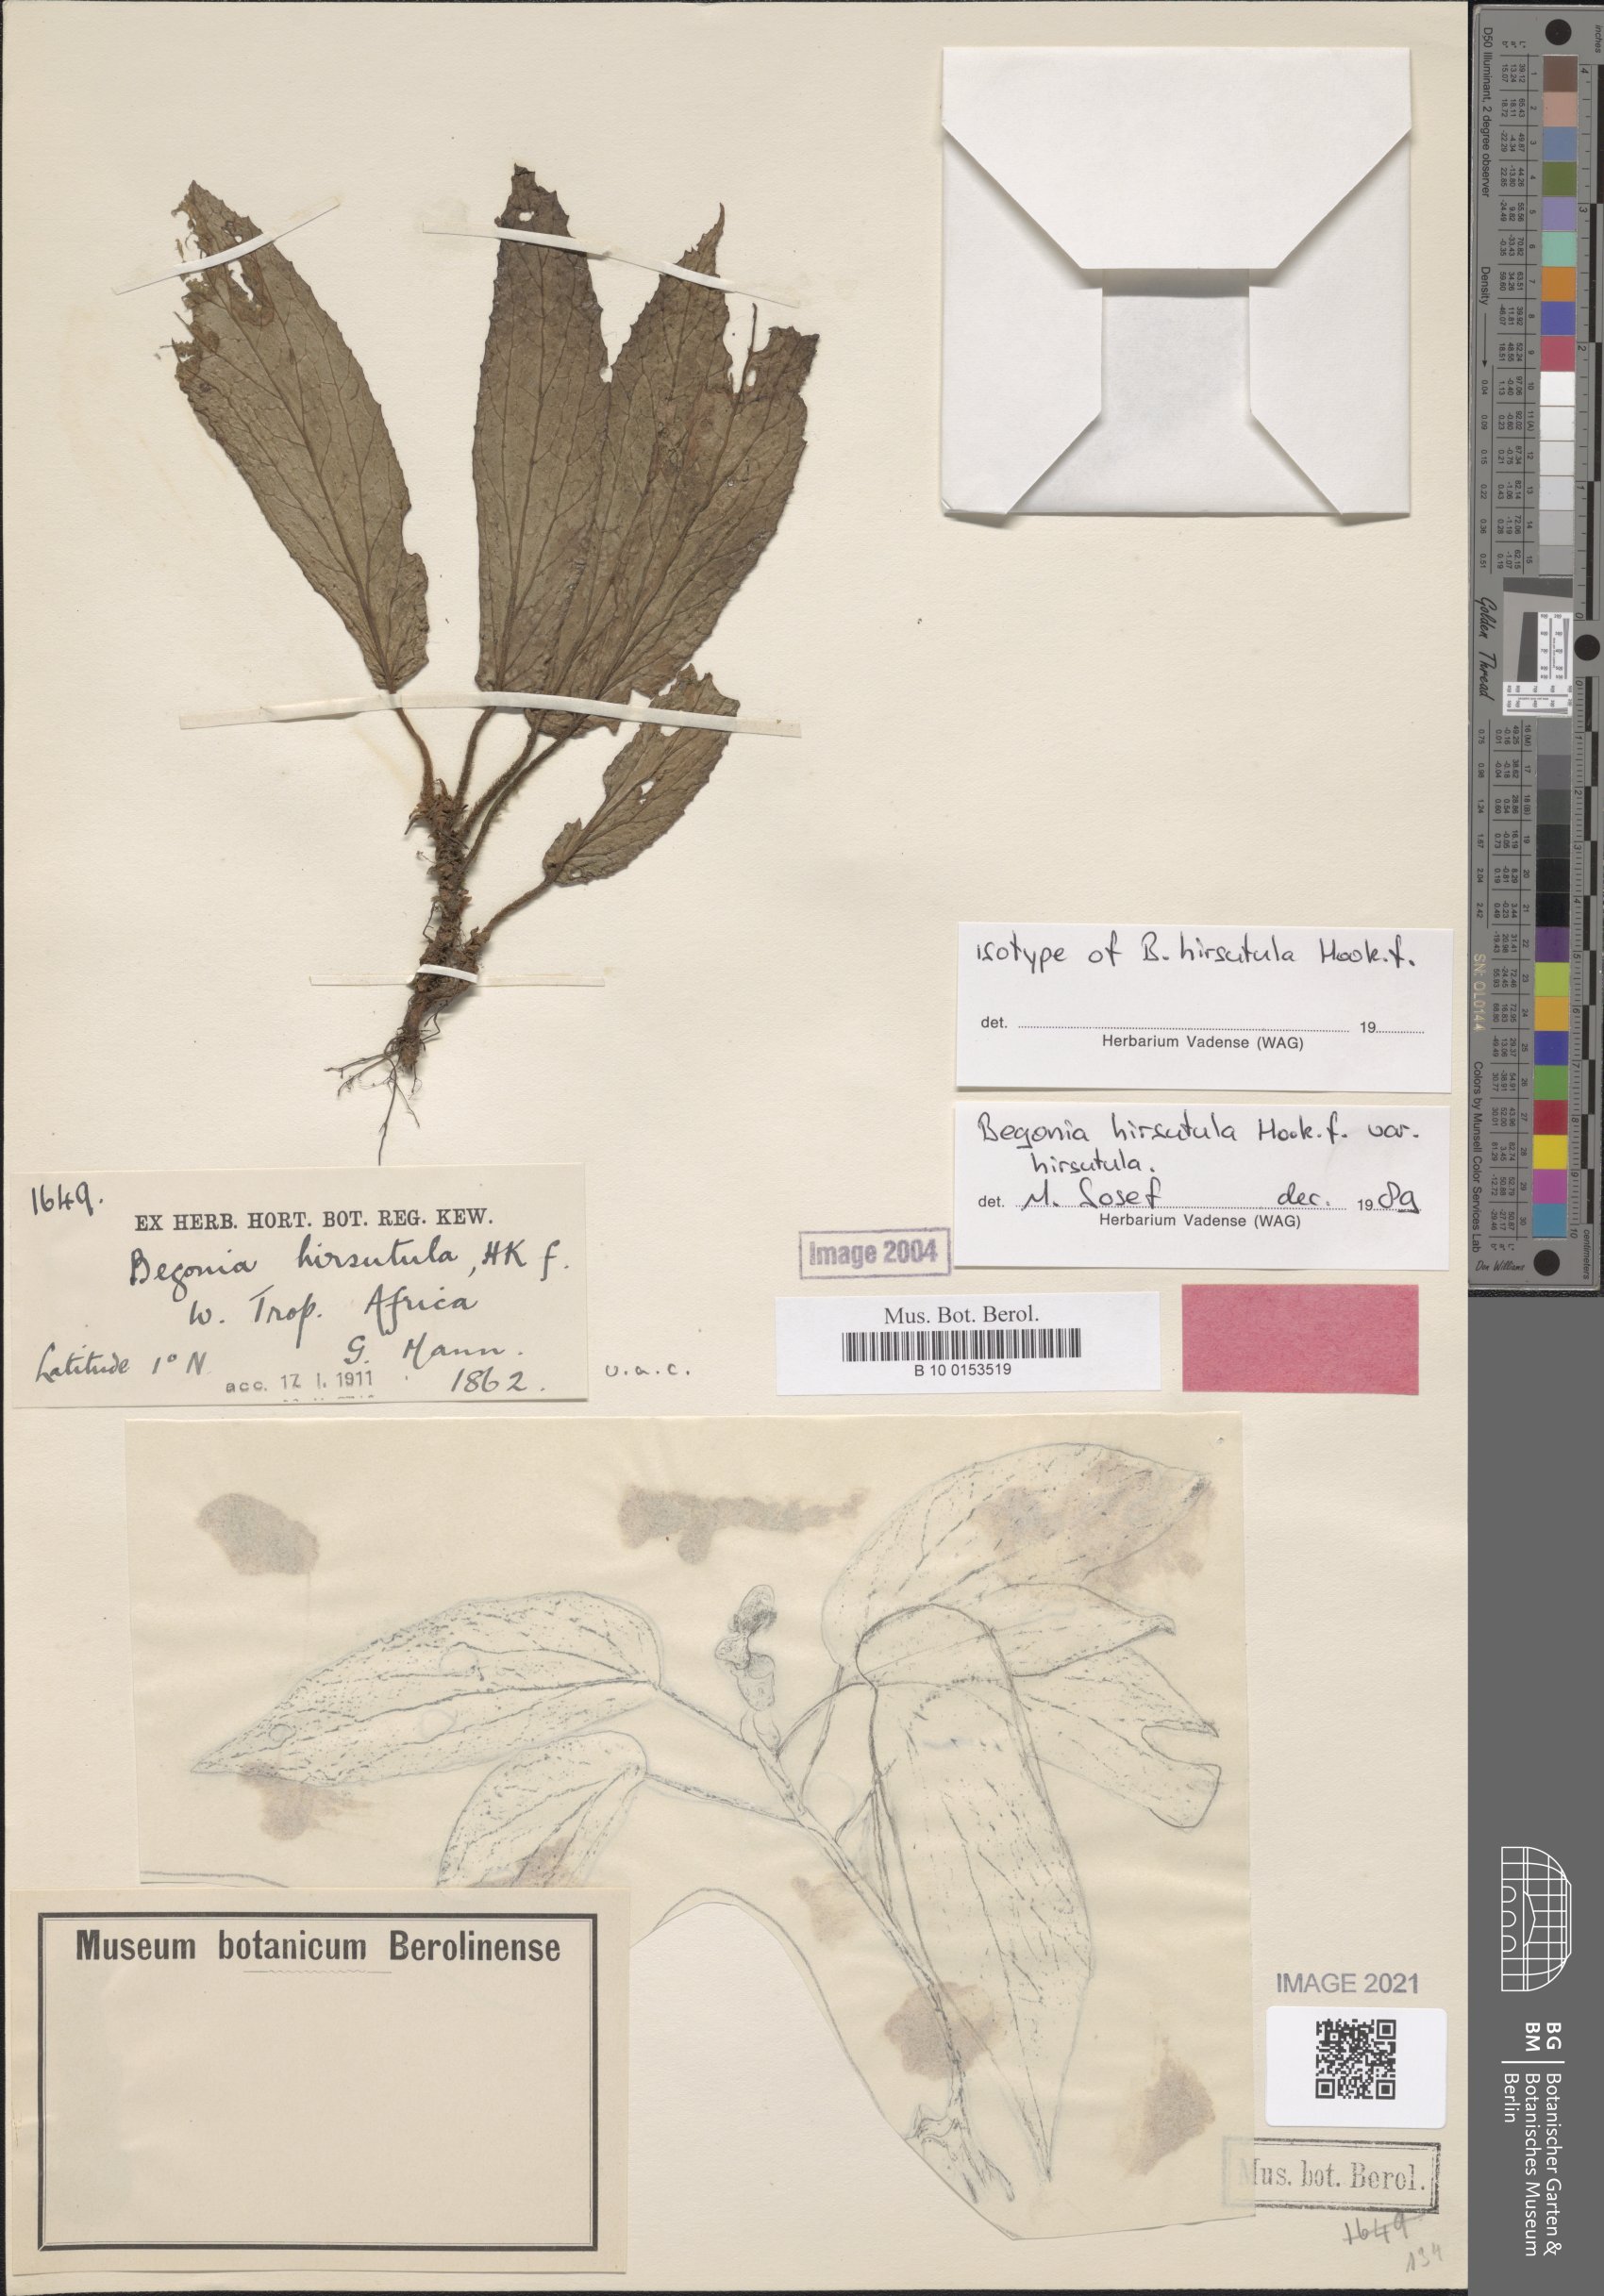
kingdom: Plantae
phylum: Tracheophyta
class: Magnoliopsida
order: Cucurbitales
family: Begoniaceae
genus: Begonia
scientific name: Begonia hirsutula
